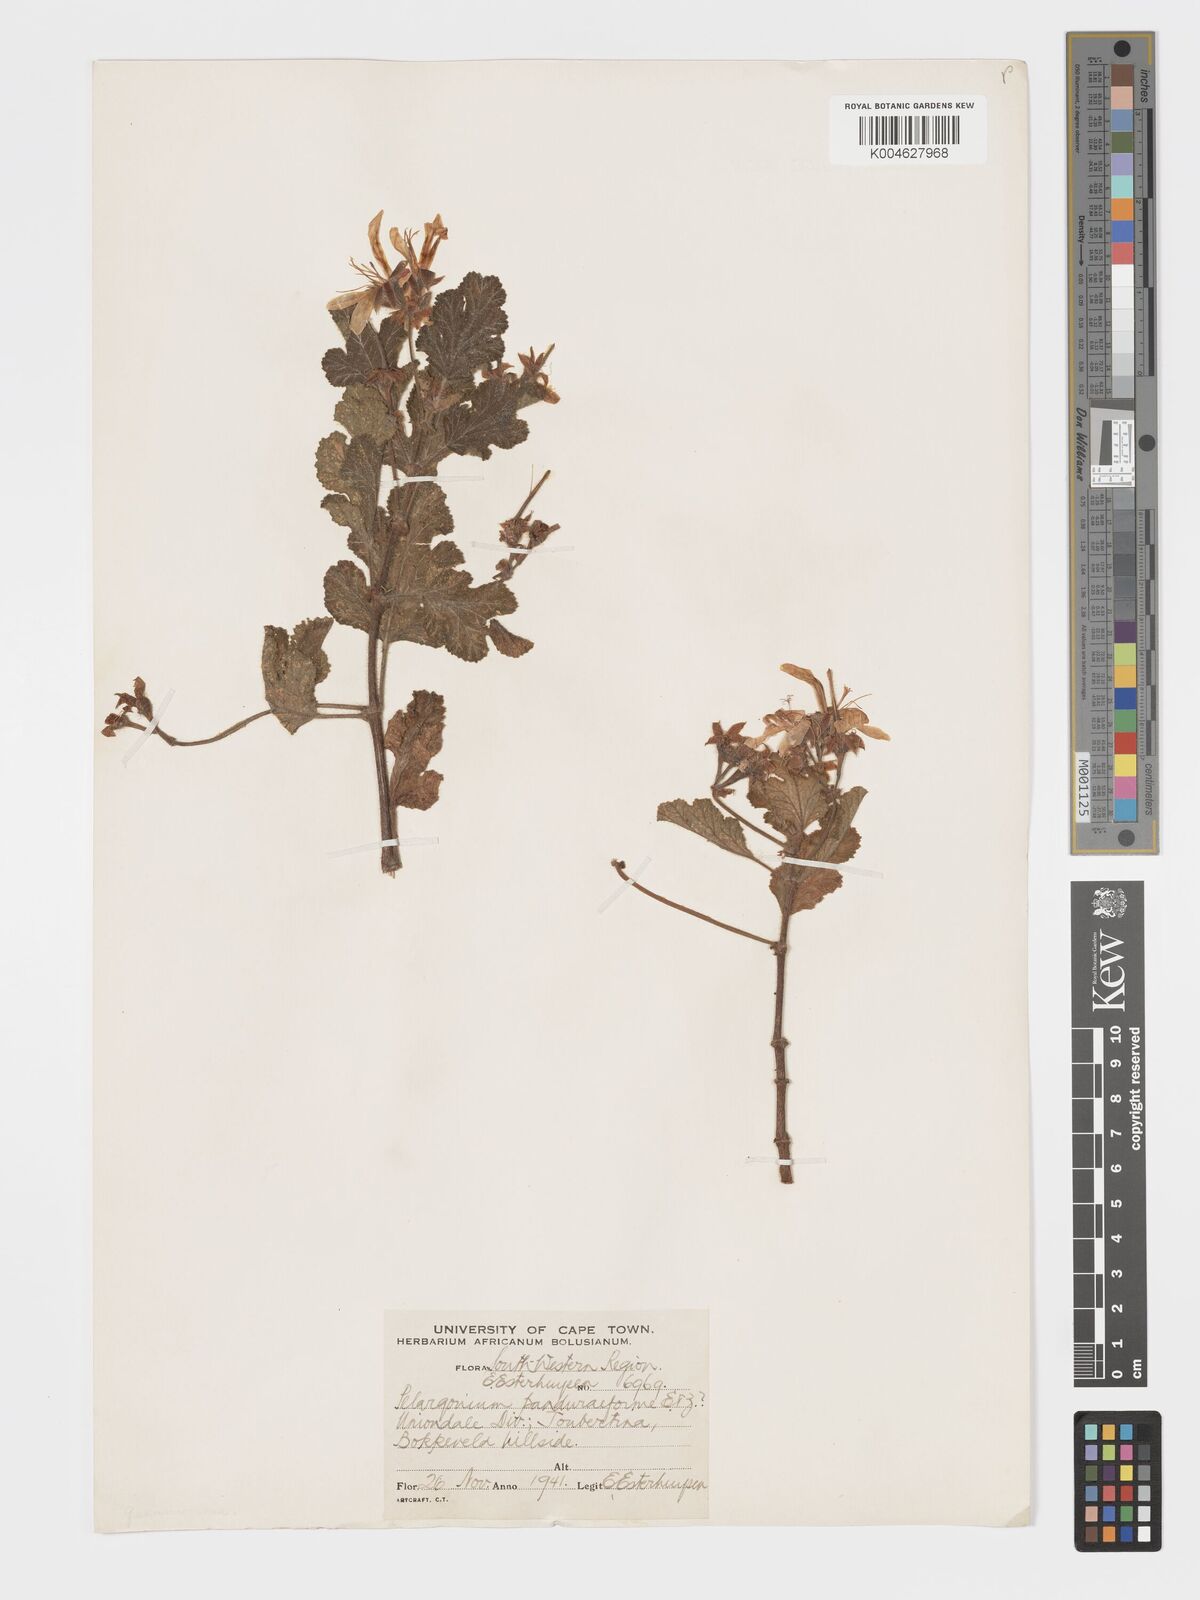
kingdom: Plantae
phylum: Tracheophyta
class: Magnoliopsida
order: Geraniales
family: Geraniaceae
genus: Pelargonium
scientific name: Pelargonium panduriforme
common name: Oakleaf garden geranium
